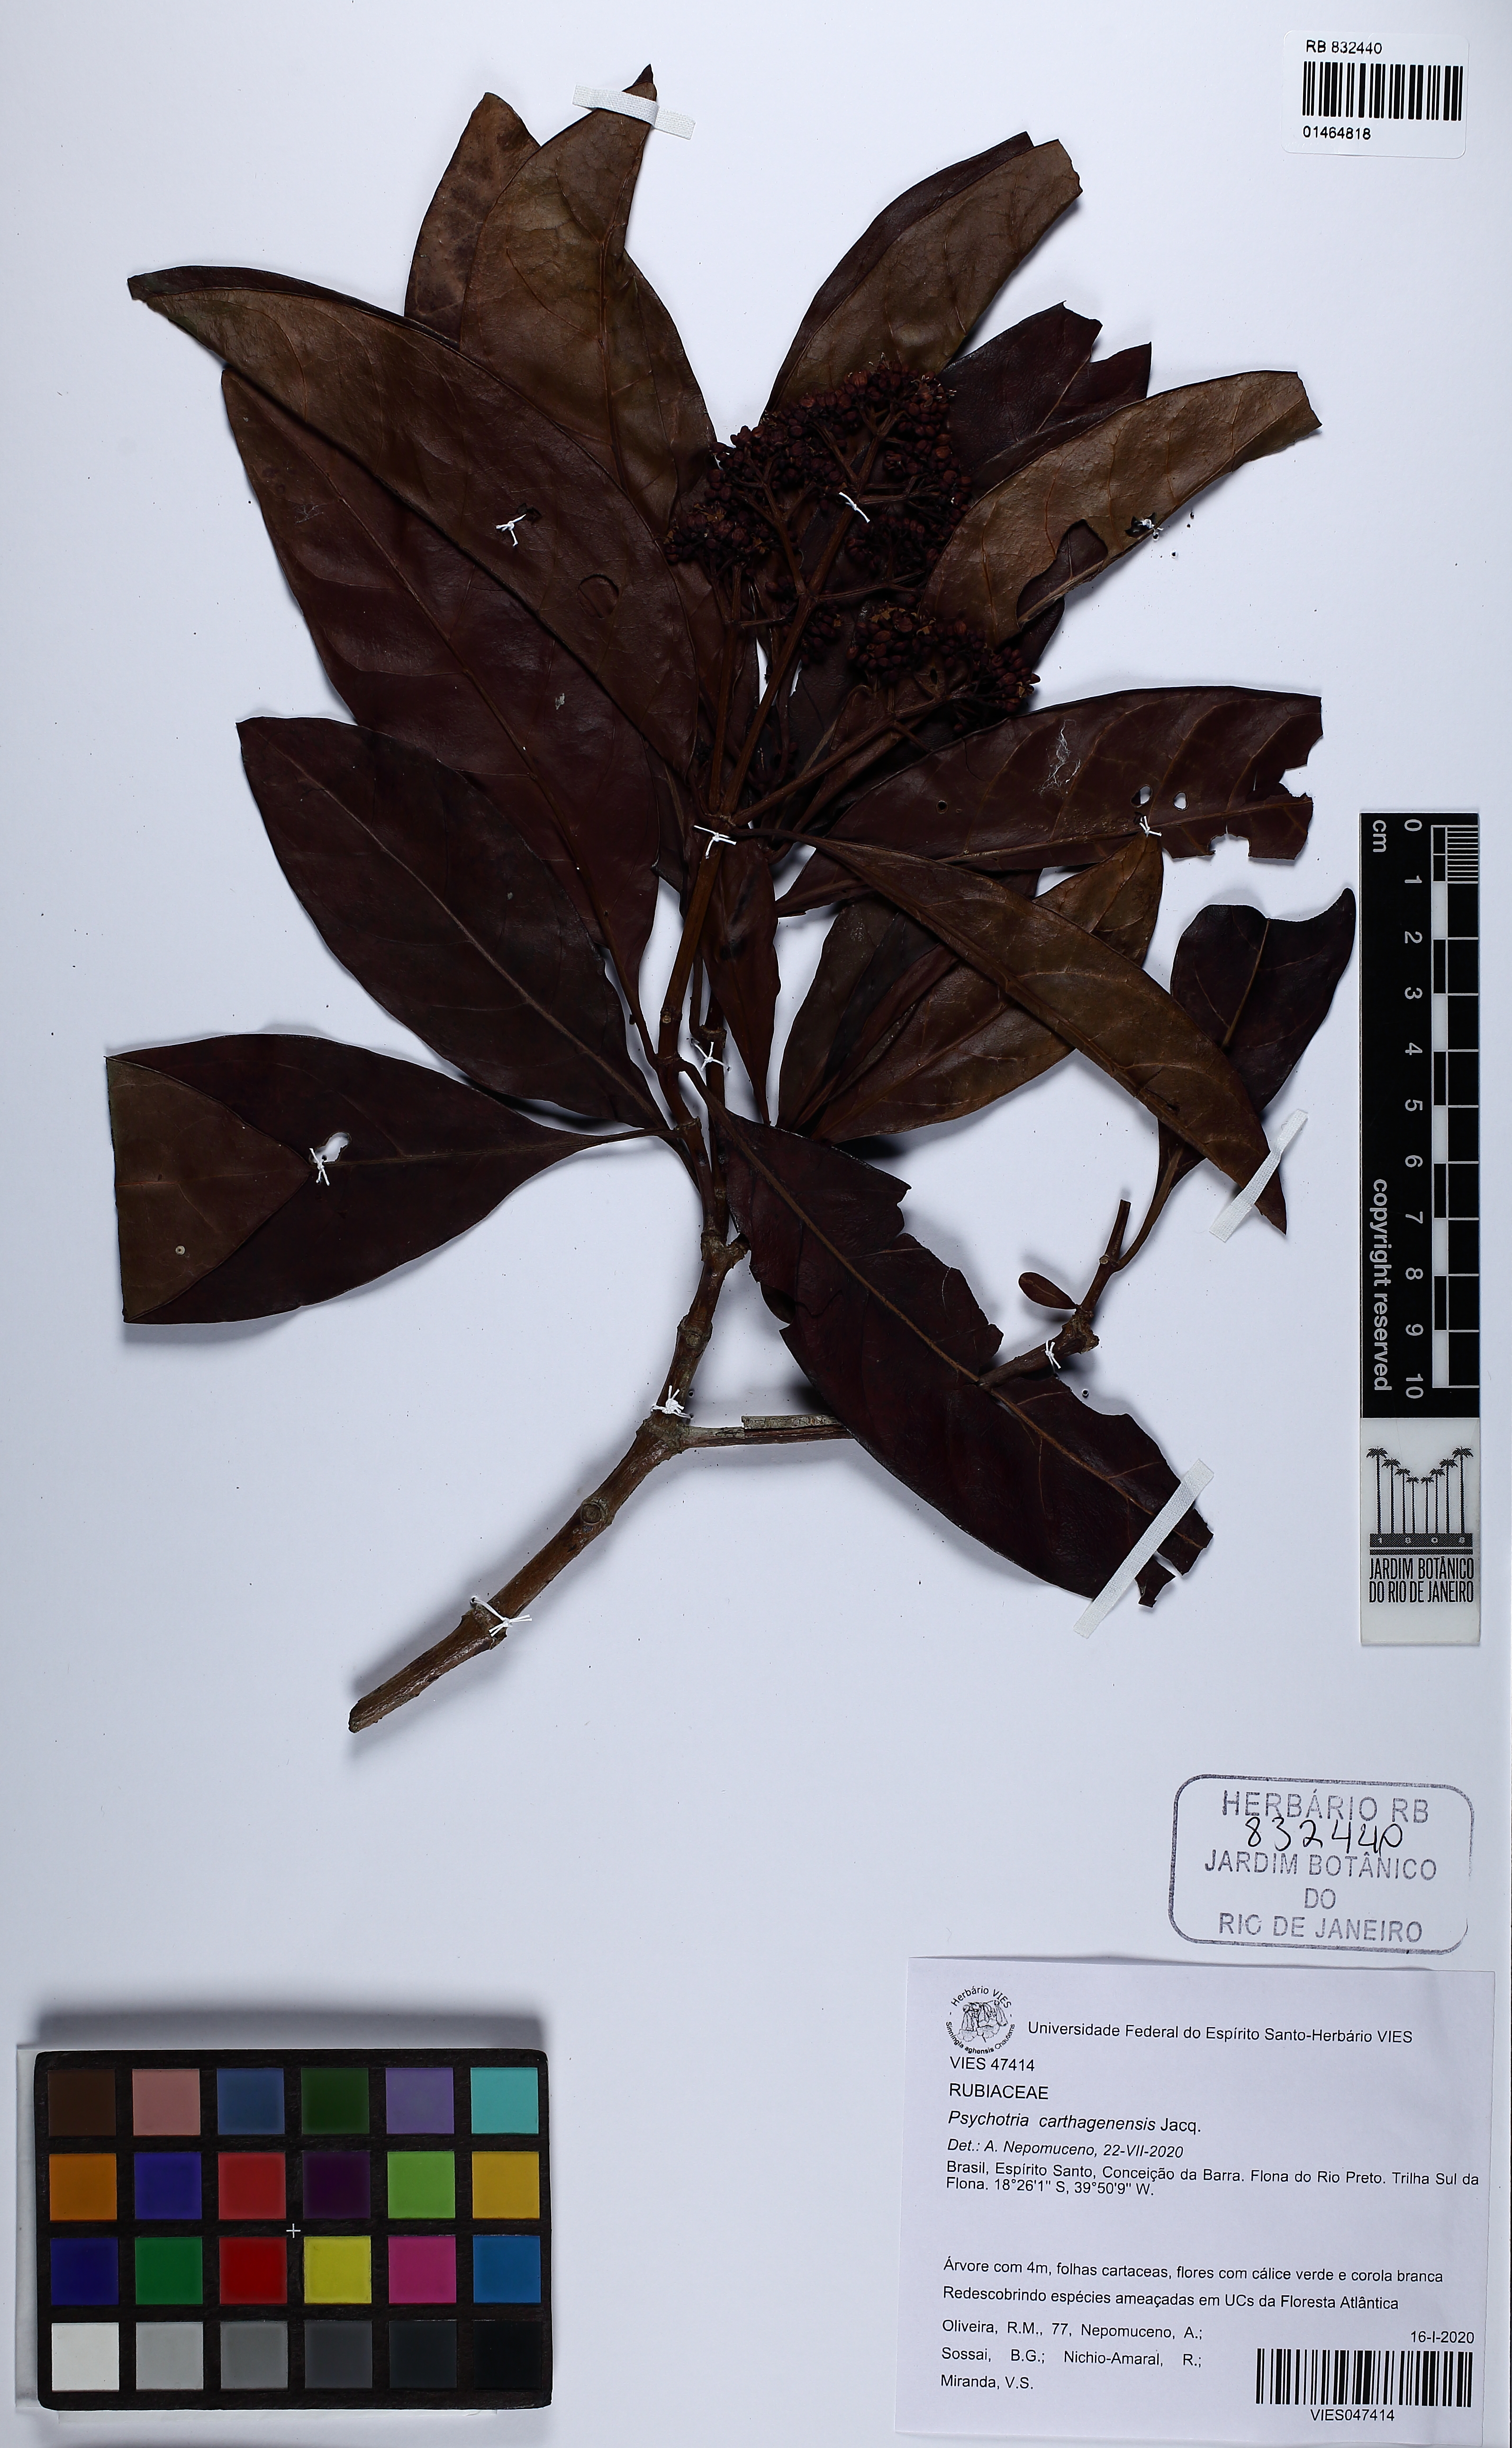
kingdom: Plantae
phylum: Tracheophyta
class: Magnoliopsida
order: Gentianales
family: Rubiaceae
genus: Psychotria
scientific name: Psychotria carthagenensis
